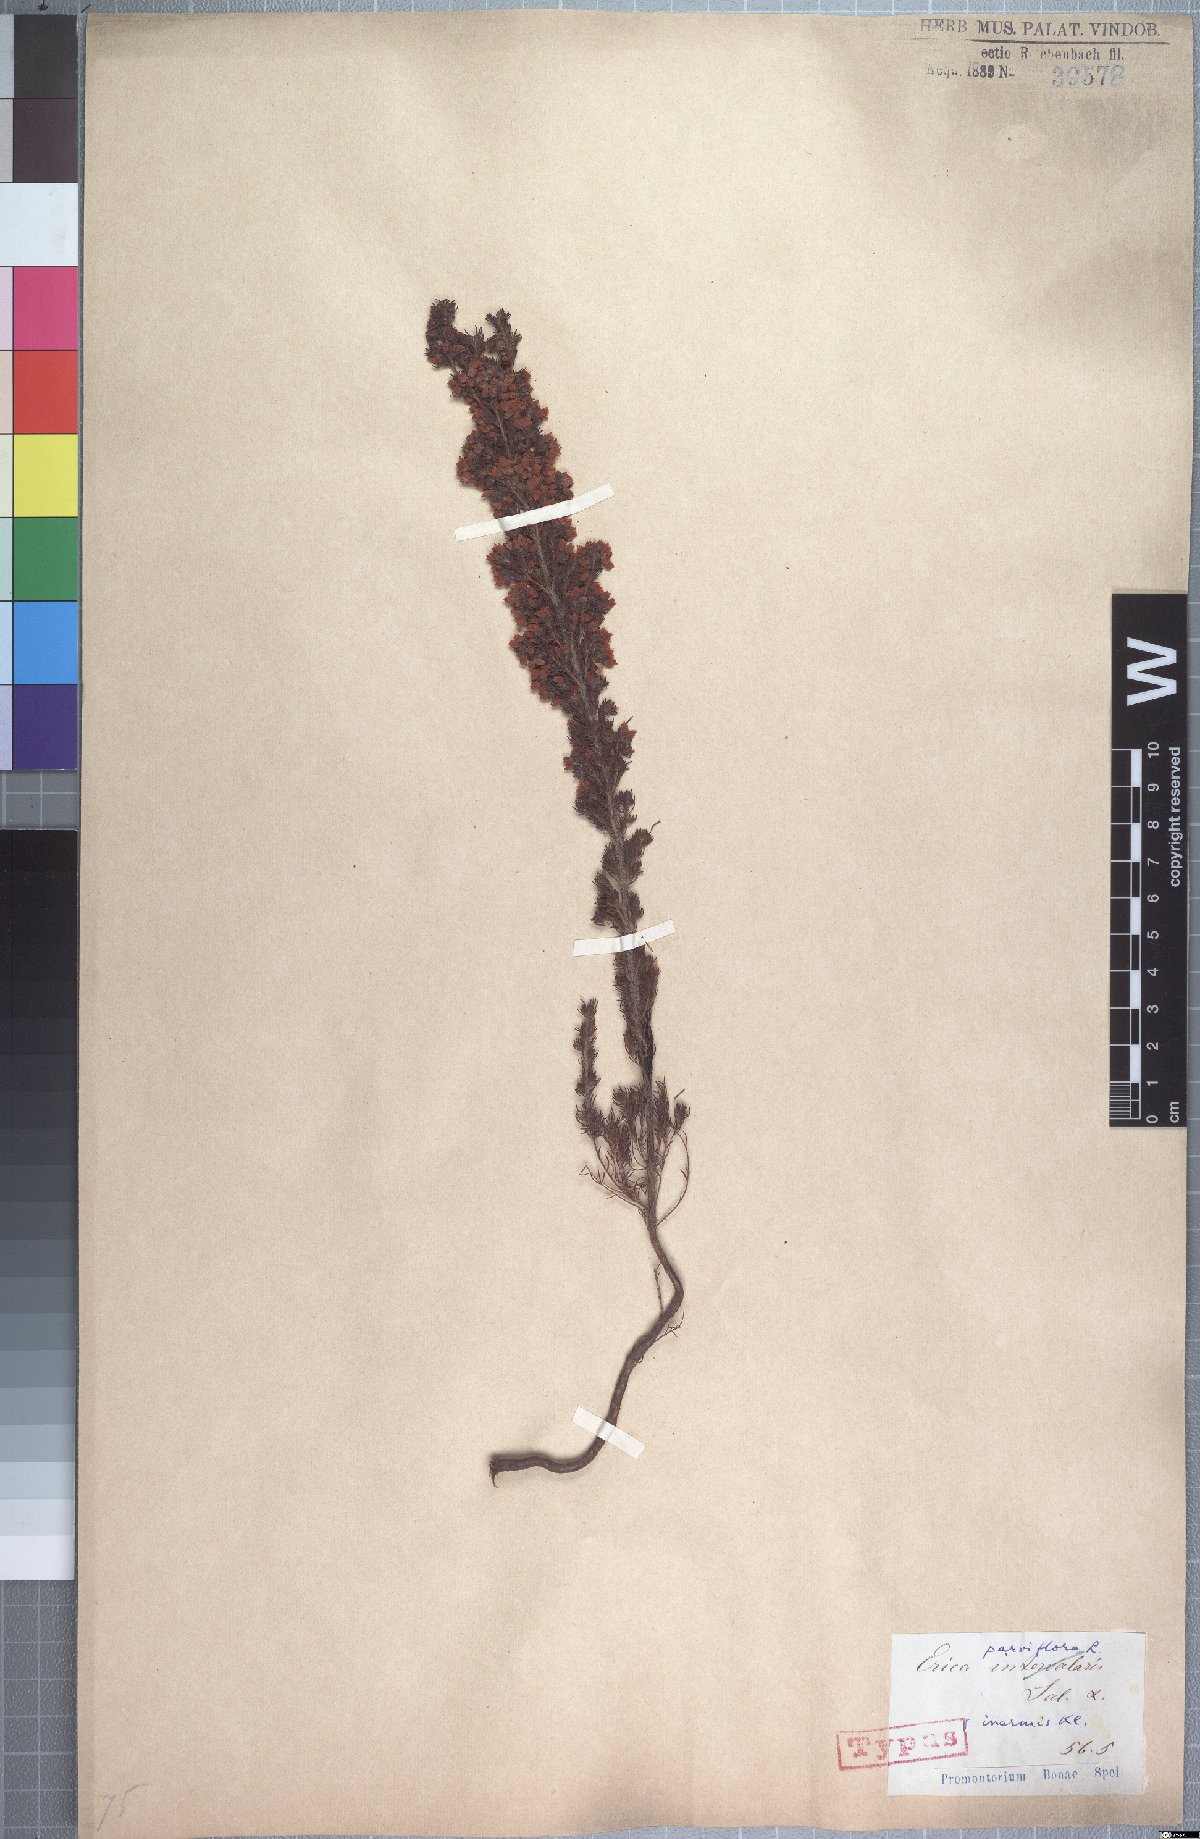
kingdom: Plantae
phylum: Tracheophyta
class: Magnoliopsida
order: Ericales
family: Ericaceae
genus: Erica
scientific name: Erica parviflora
